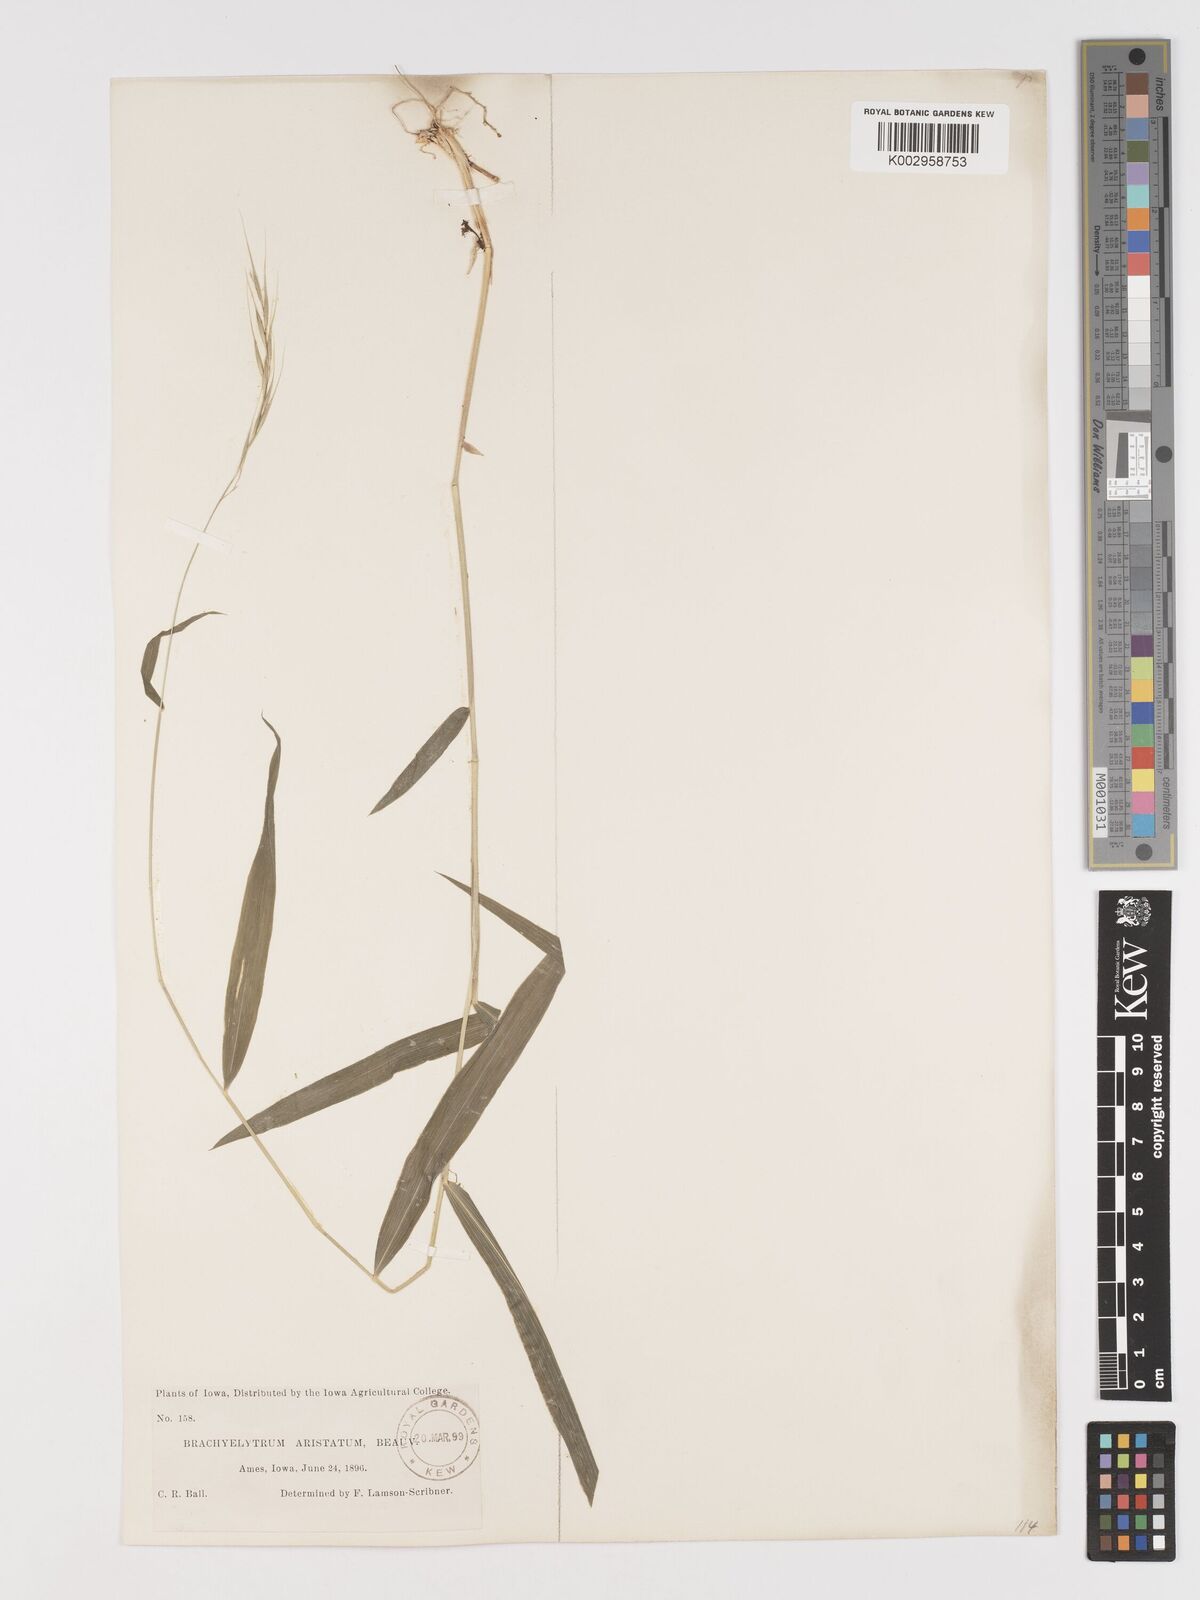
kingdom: Plantae
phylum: Tracheophyta
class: Liliopsida
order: Poales
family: Poaceae
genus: Brachyelytrum
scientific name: Brachyelytrum erectum
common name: Bearded shorthusk
